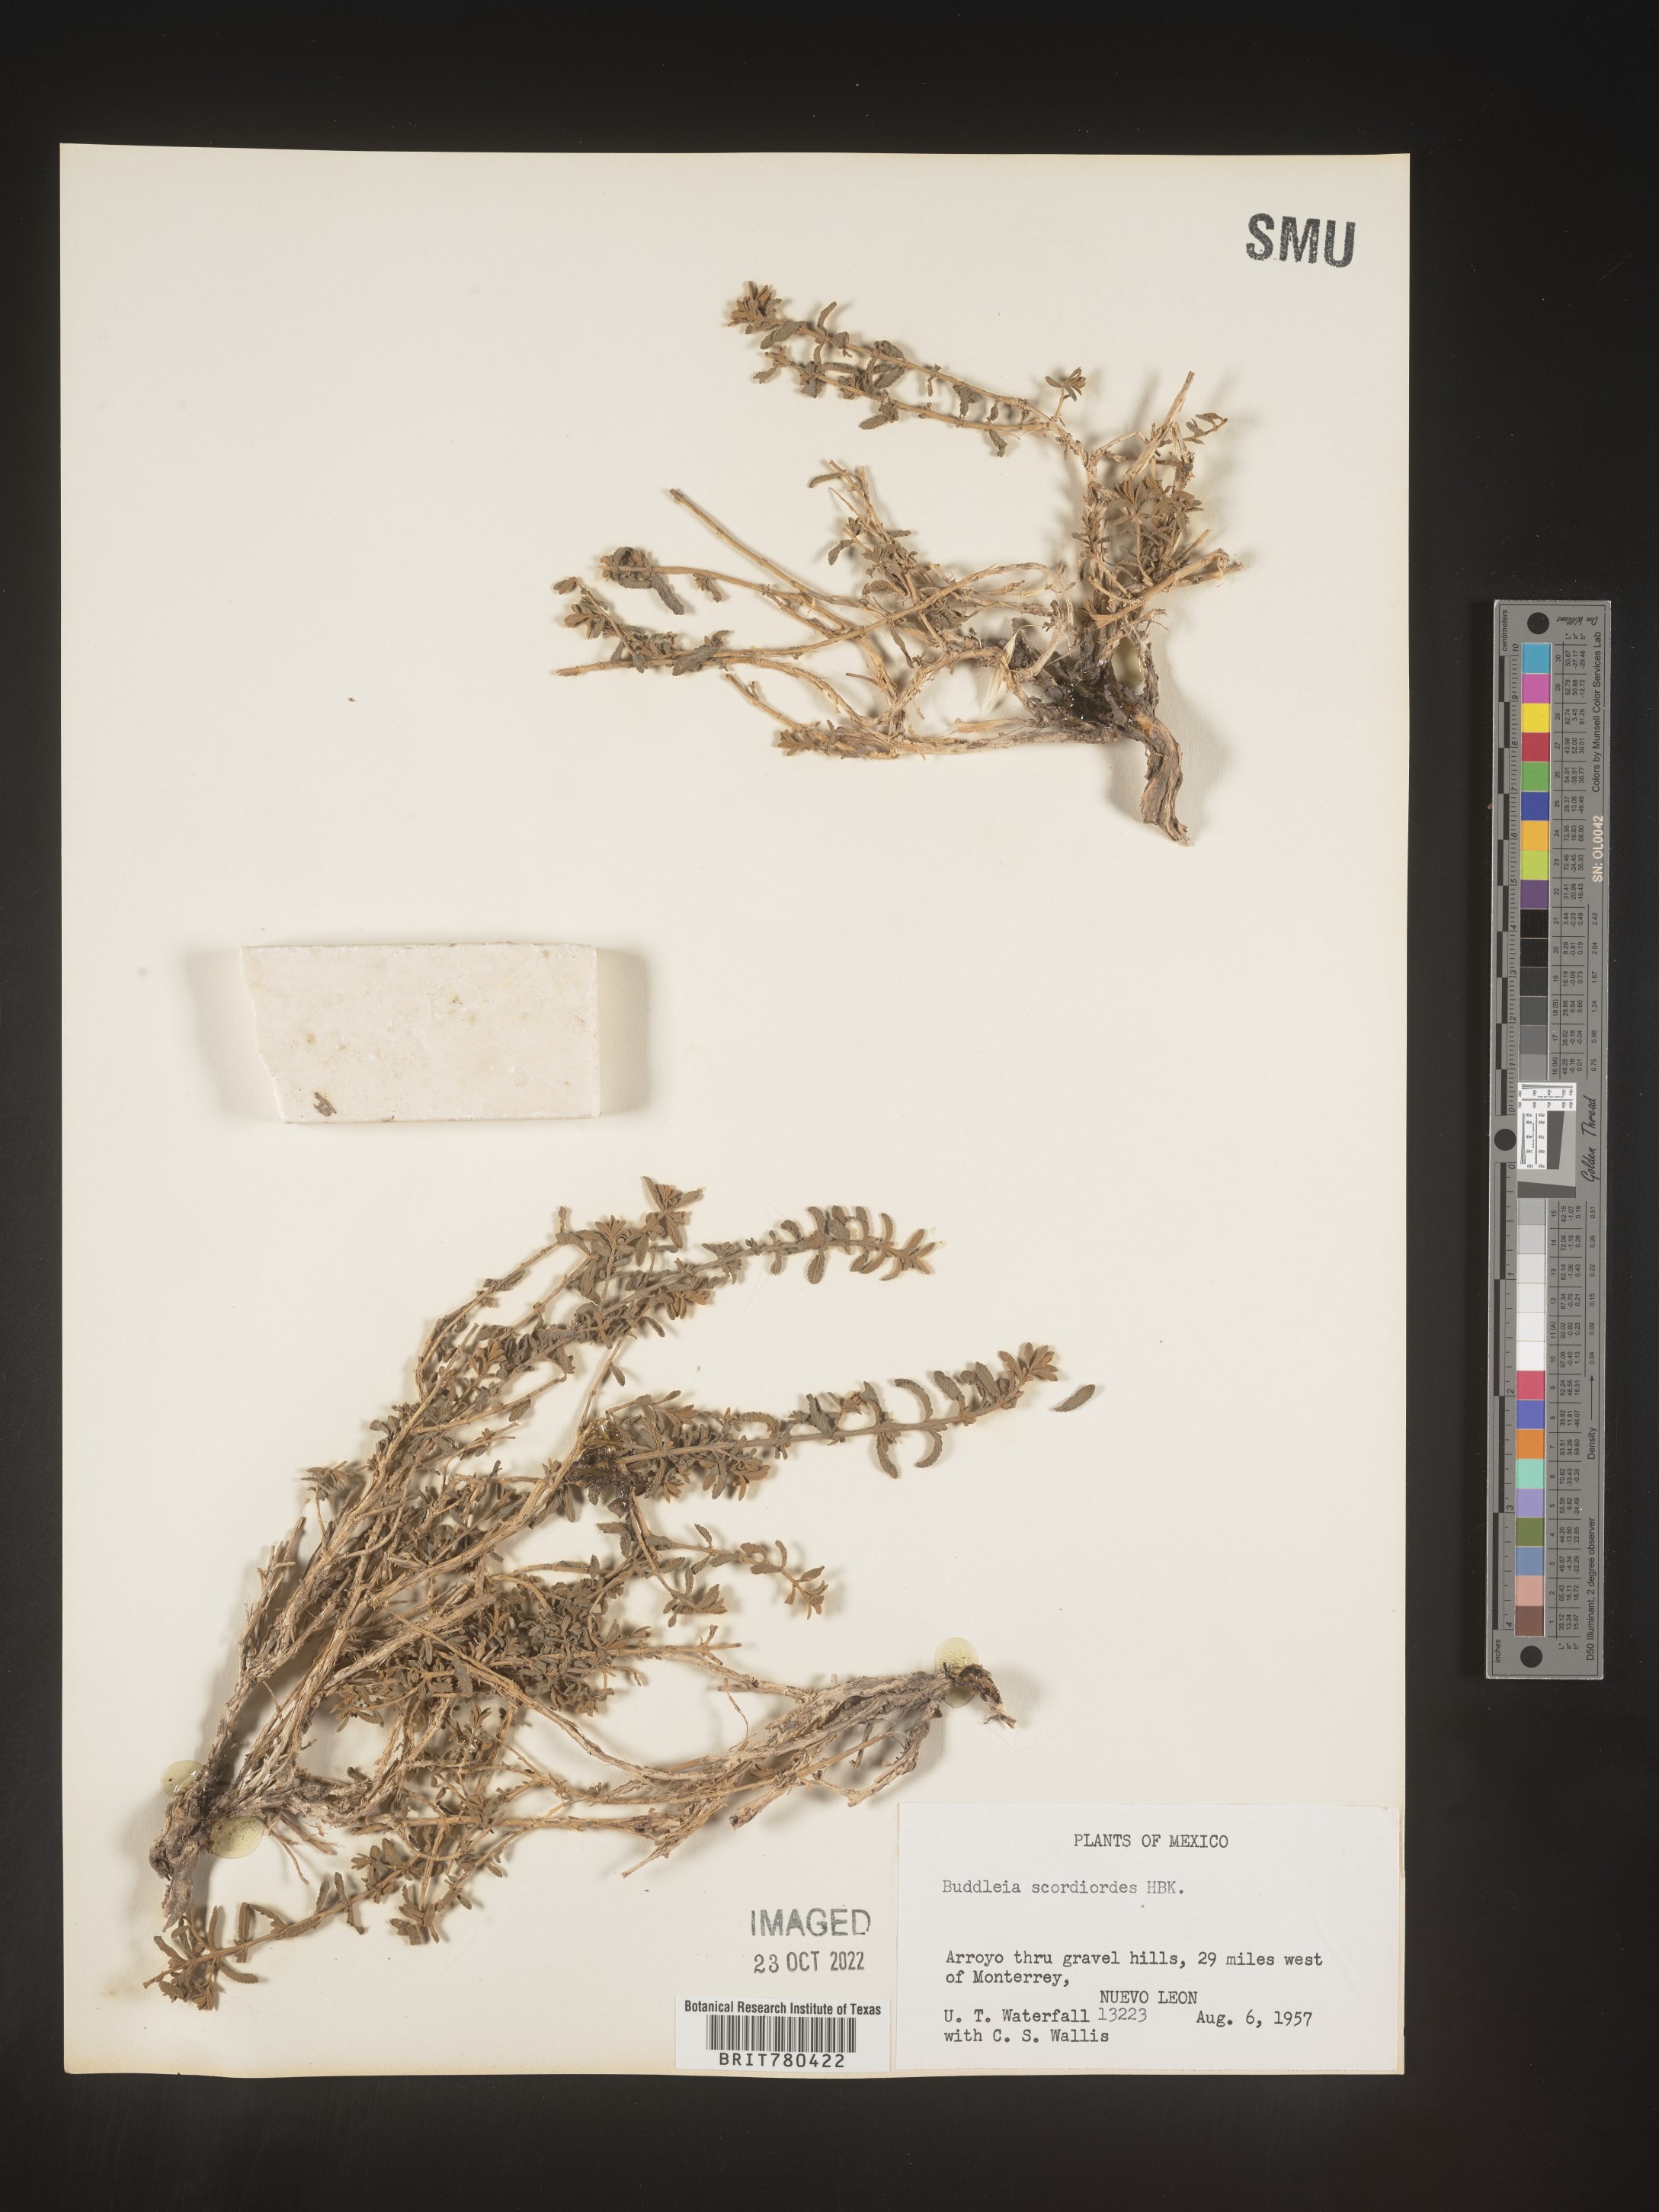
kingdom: Plantae
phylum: Tracheophyta
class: Magnoliopsida
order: Lamiales
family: Scrophulariaceae
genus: Buddleja
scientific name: Buddleja
